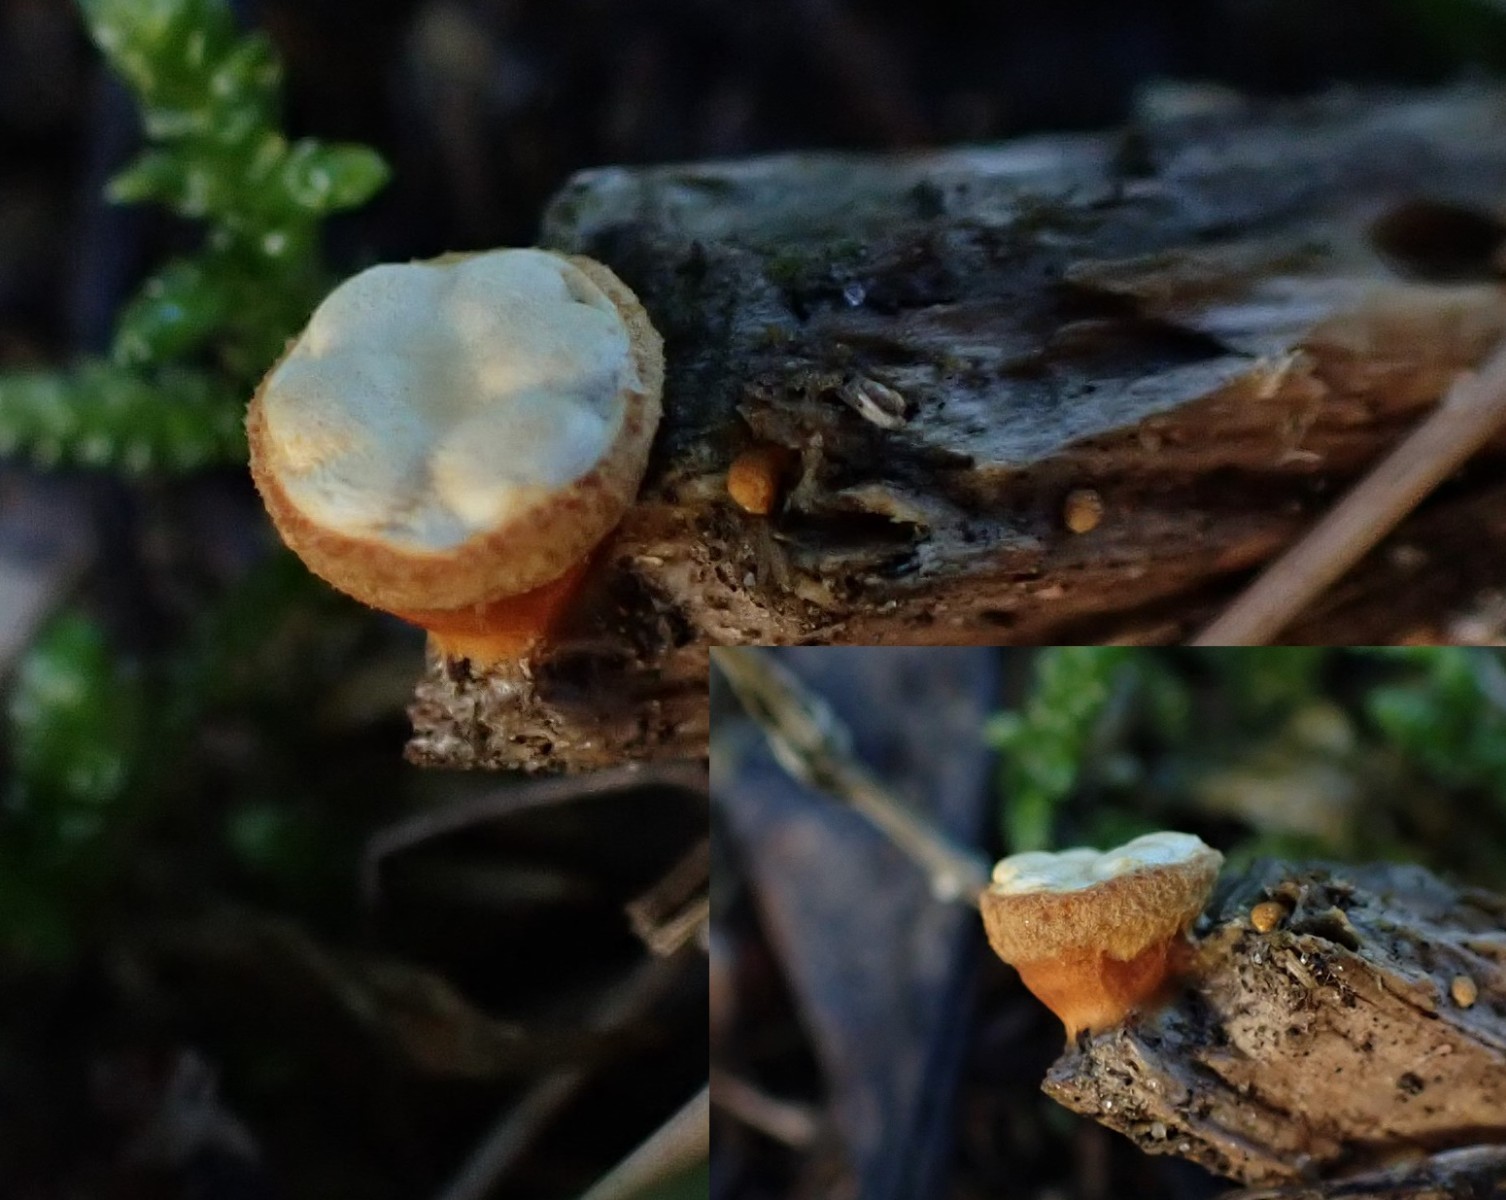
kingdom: Fungi
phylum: Basidiomycota
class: Agaricomycetes
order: Agaricales
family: Nidulariaceae
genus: Crucibulum
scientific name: Crucibulum crucibuliforme
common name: krukkesvamp
